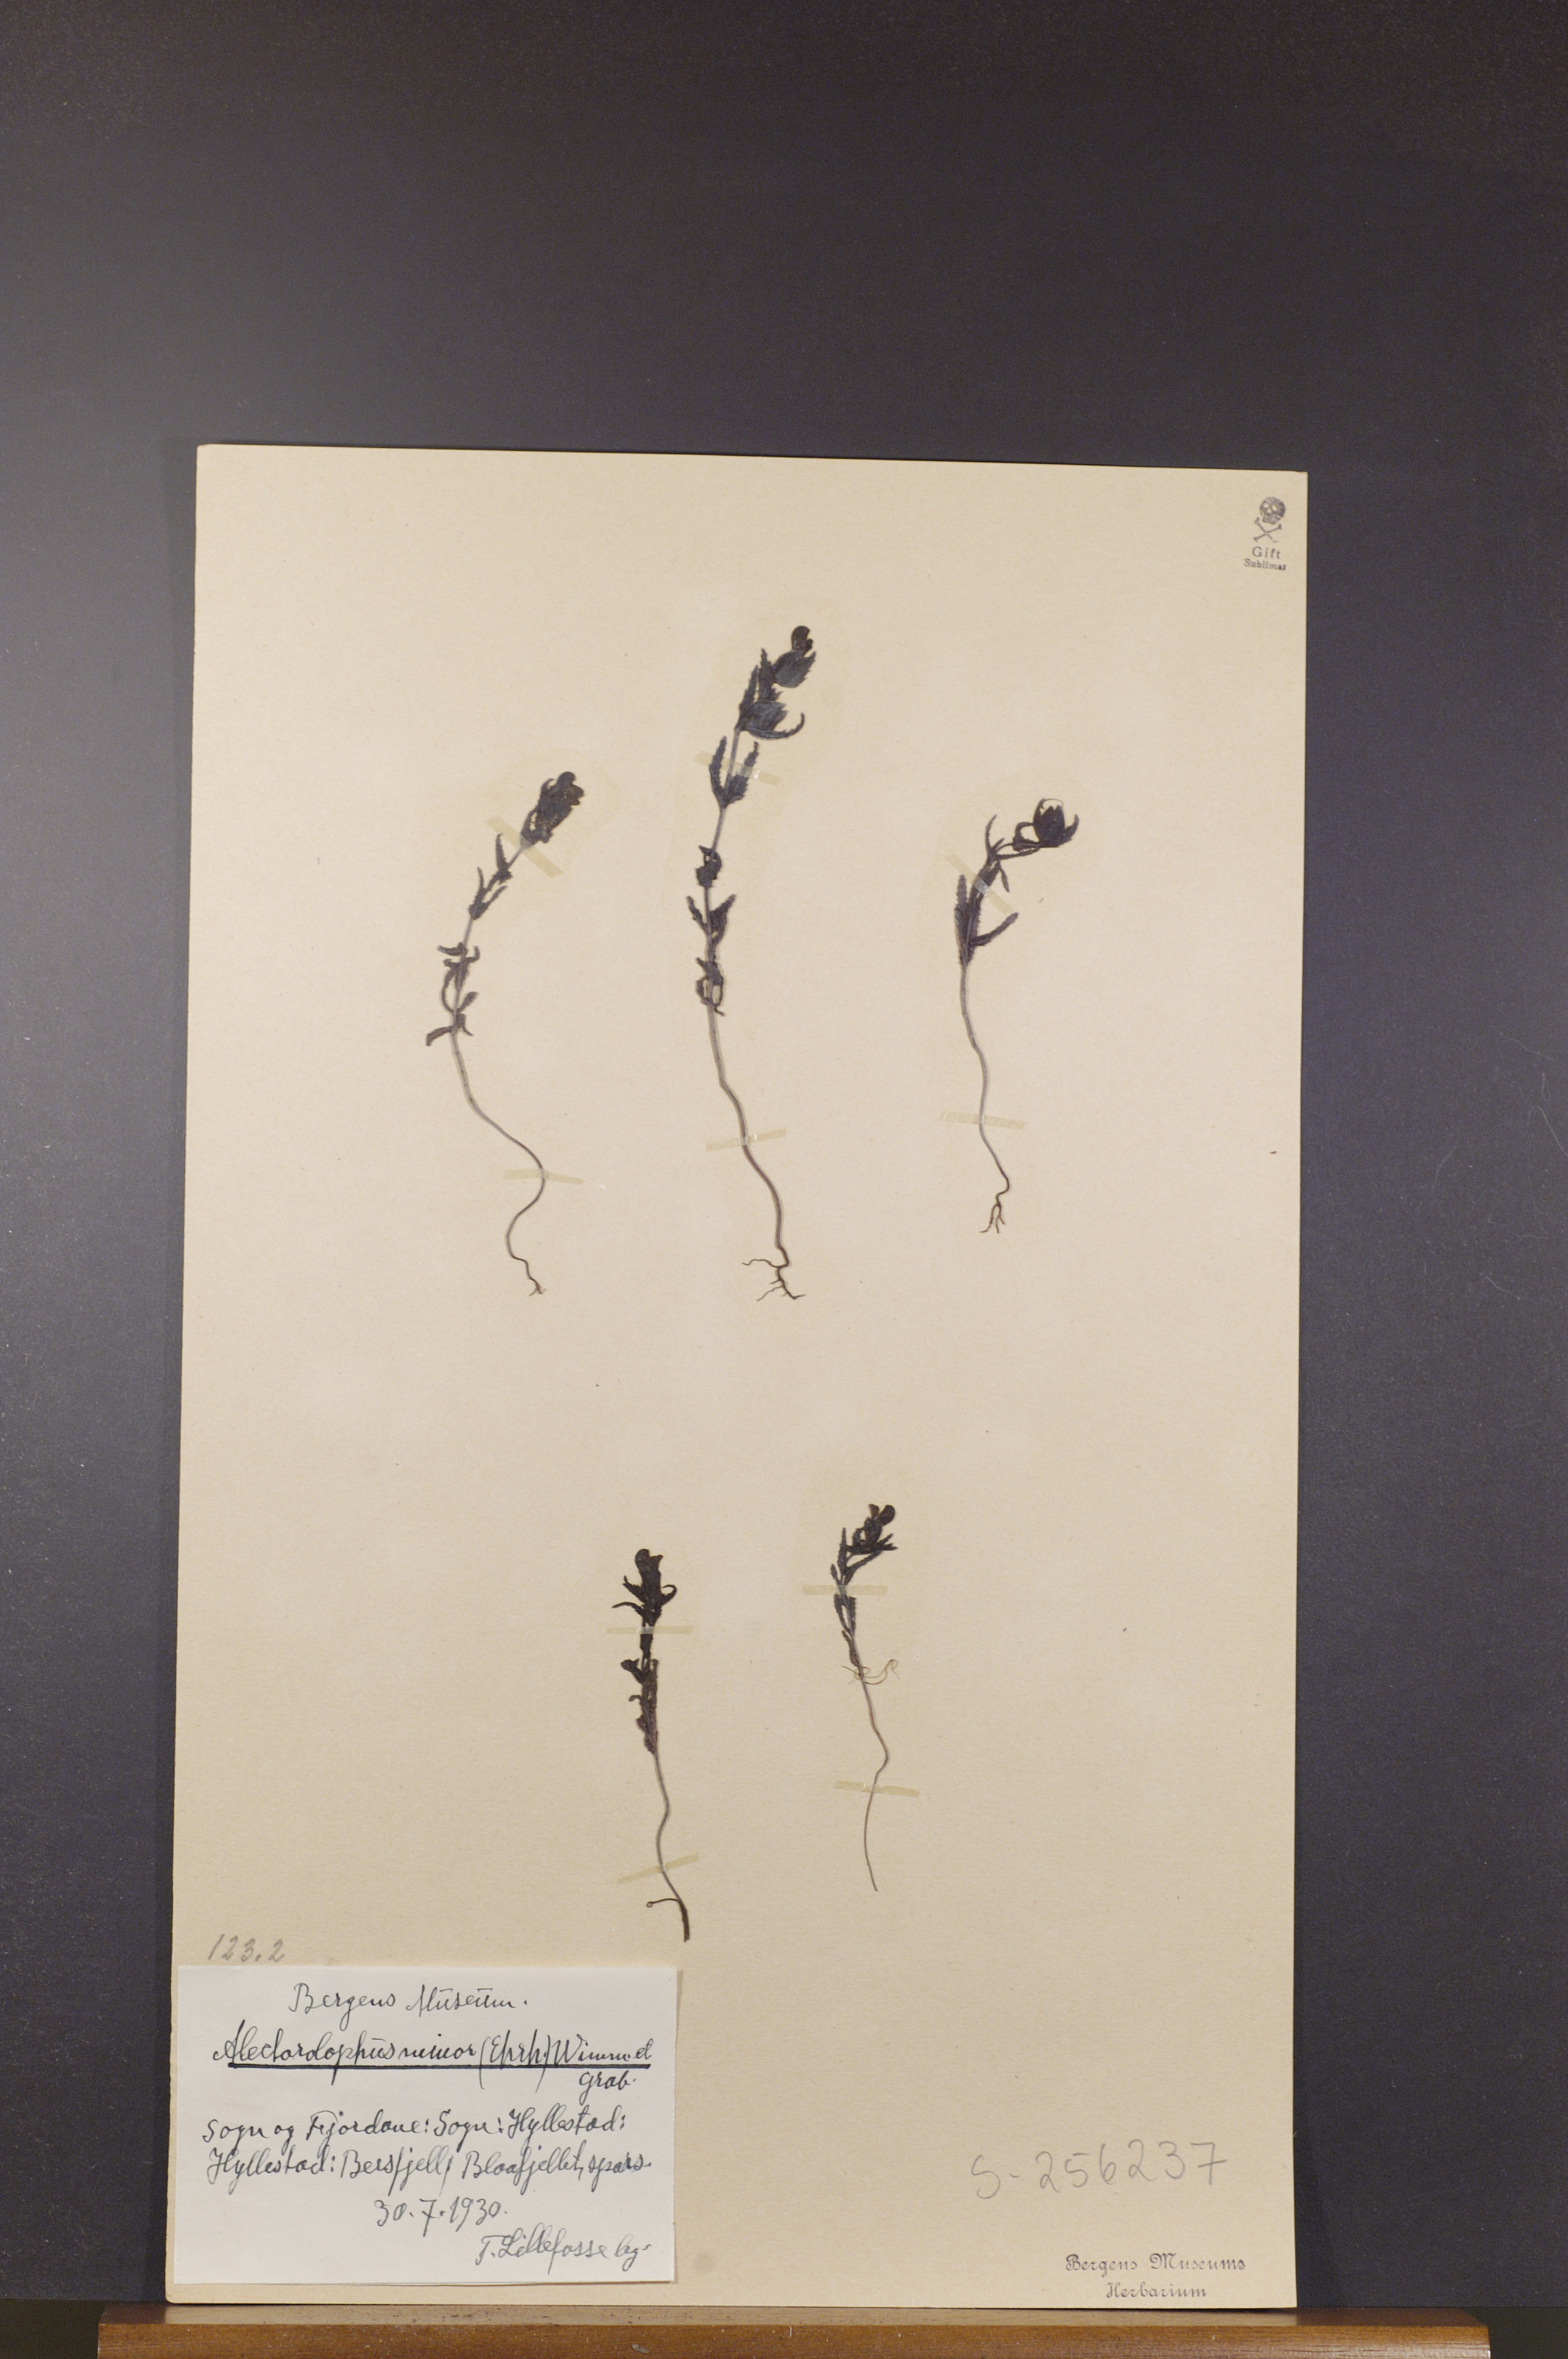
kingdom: Plantae
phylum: Tracheophyta
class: Magnoliopsida
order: Lamiales
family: Orobanchaceae
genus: Rhinanthus
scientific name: Rhinanthus minor
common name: Yellow-rattle
